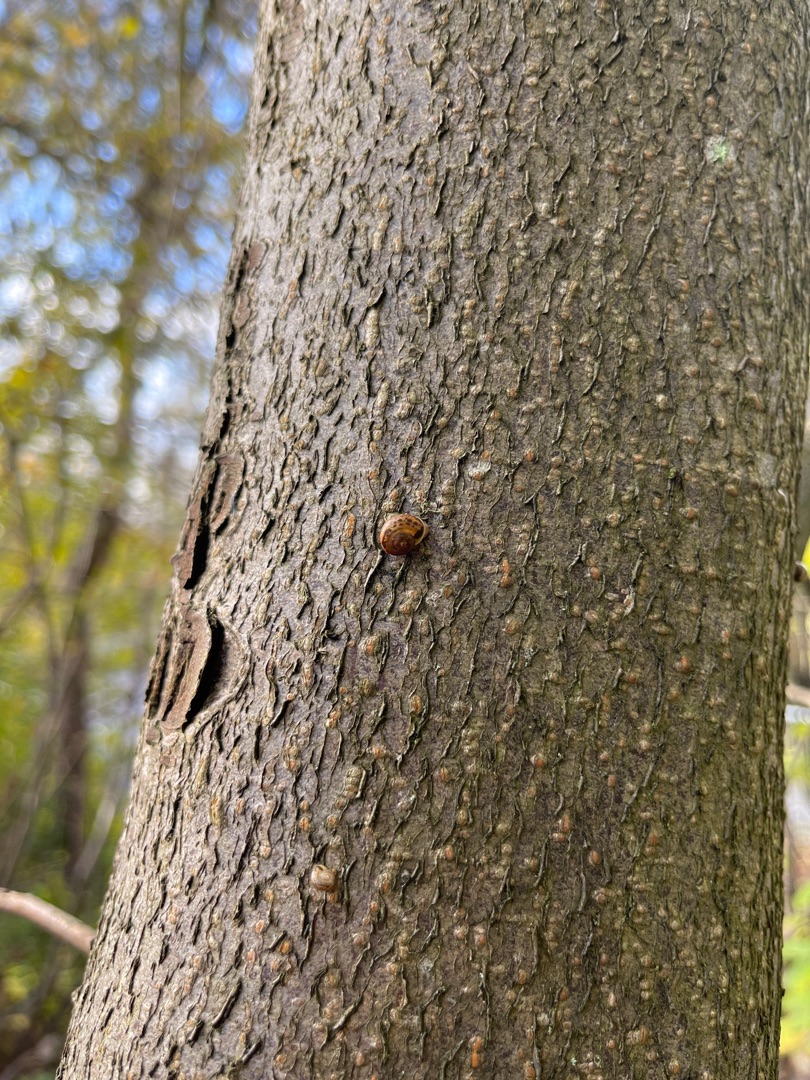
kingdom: Plantae
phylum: Tracheophyta
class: Magnoliopsida
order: Asterales
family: Asteraceae
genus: Lapsana
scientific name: Lapsana communis
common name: Haremad
